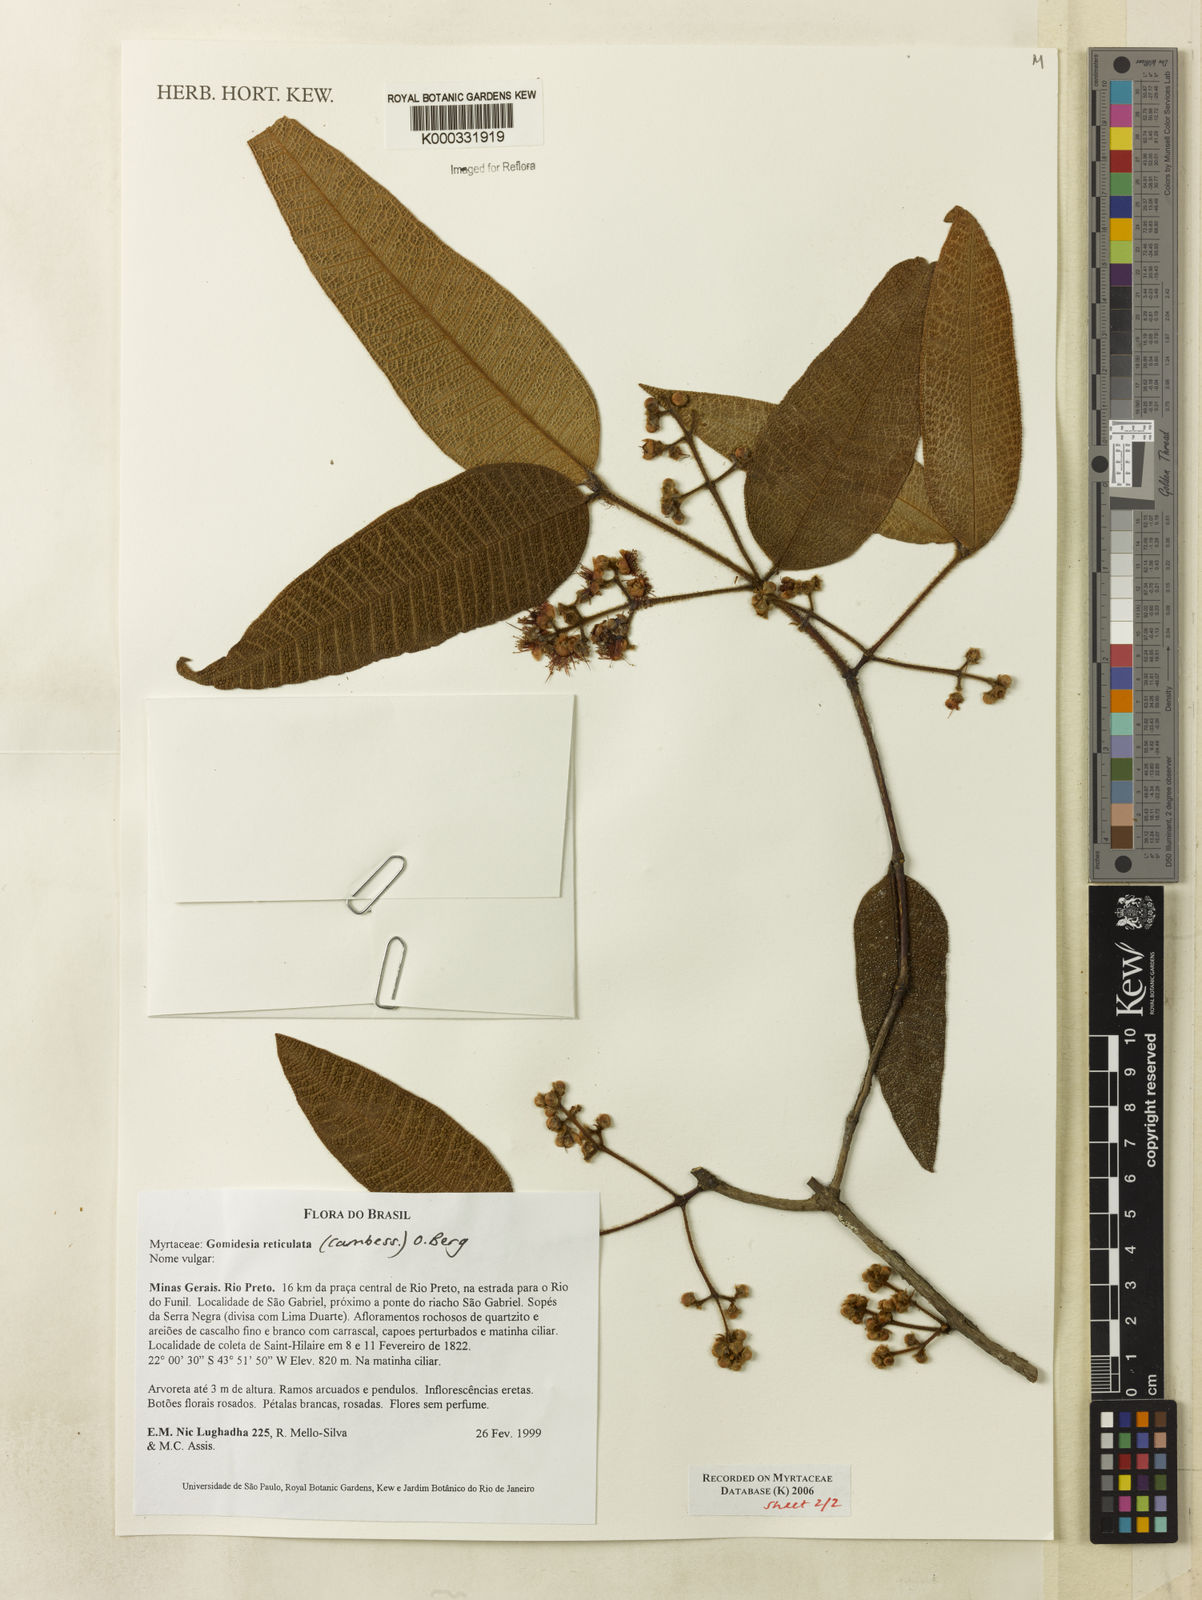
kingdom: Plantae
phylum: Tracheophyta
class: Magnoliopsida
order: Myrtales
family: Myrtaceae
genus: Myrcia
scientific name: Myrcia reticulata
